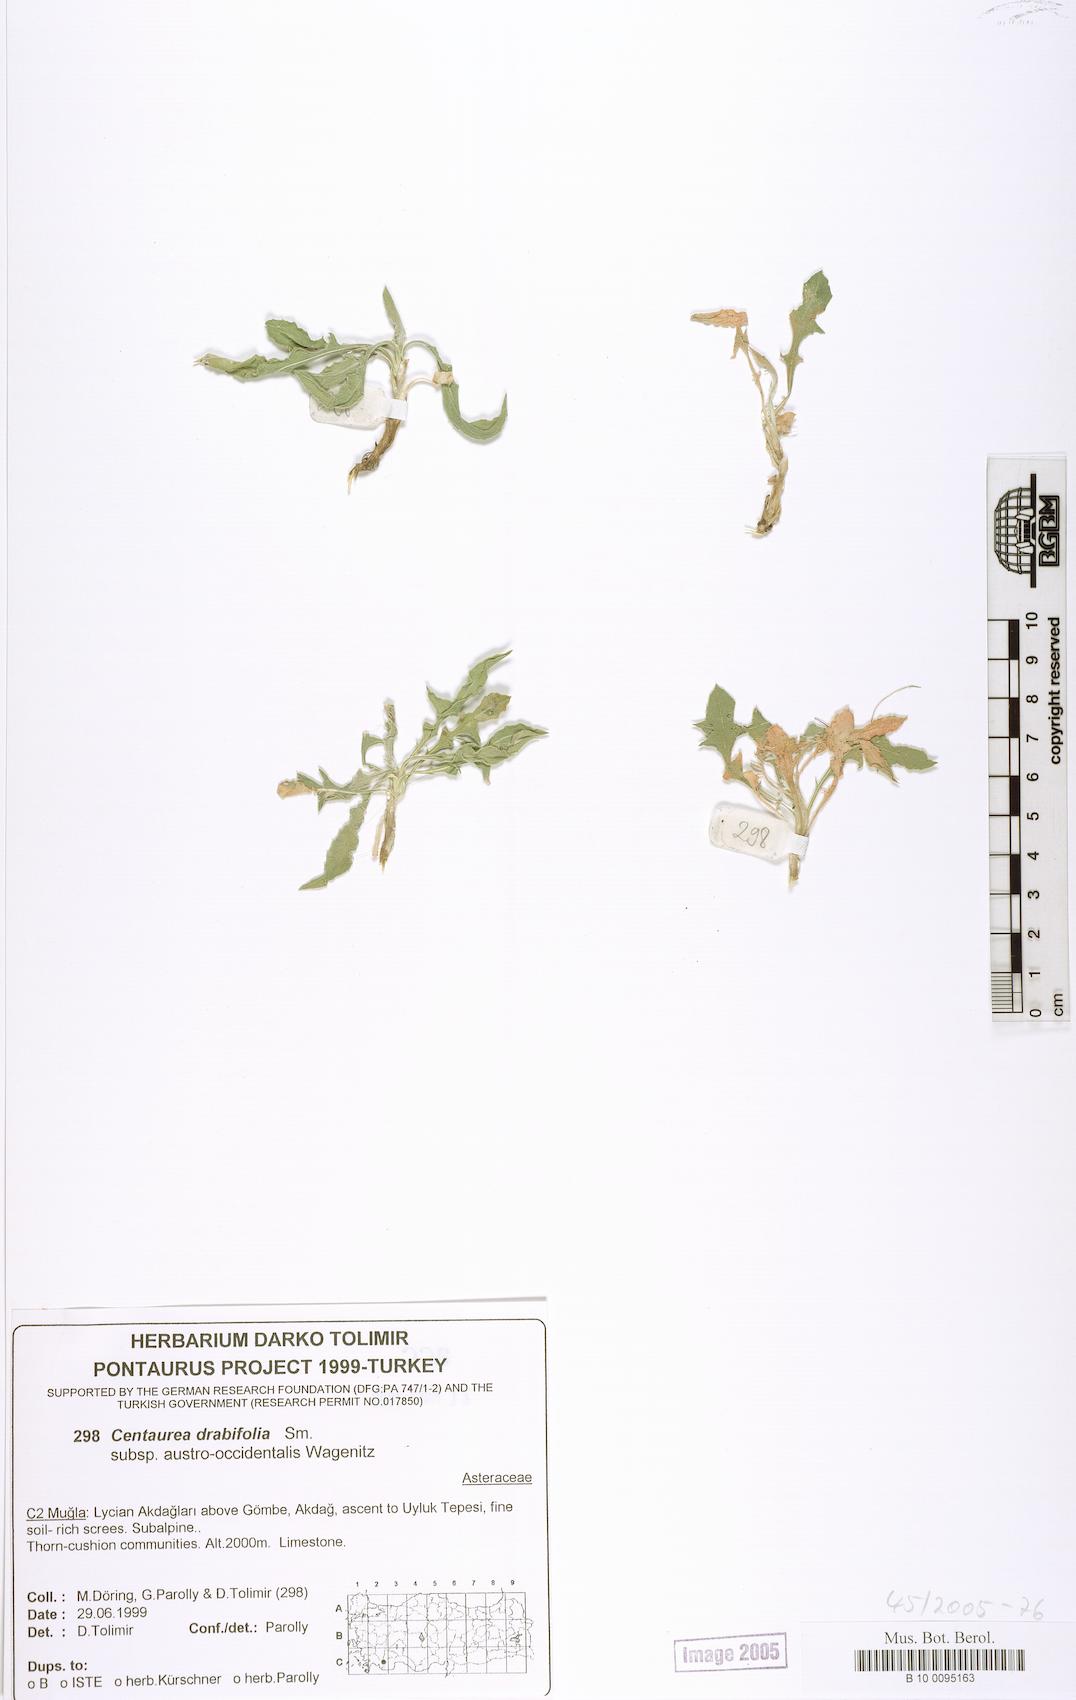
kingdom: Plantae
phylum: Tracheophyta
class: Magnoliopsida
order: Asterales
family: Asteraceae
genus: Centaurea
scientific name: Centaurea drabifolia
